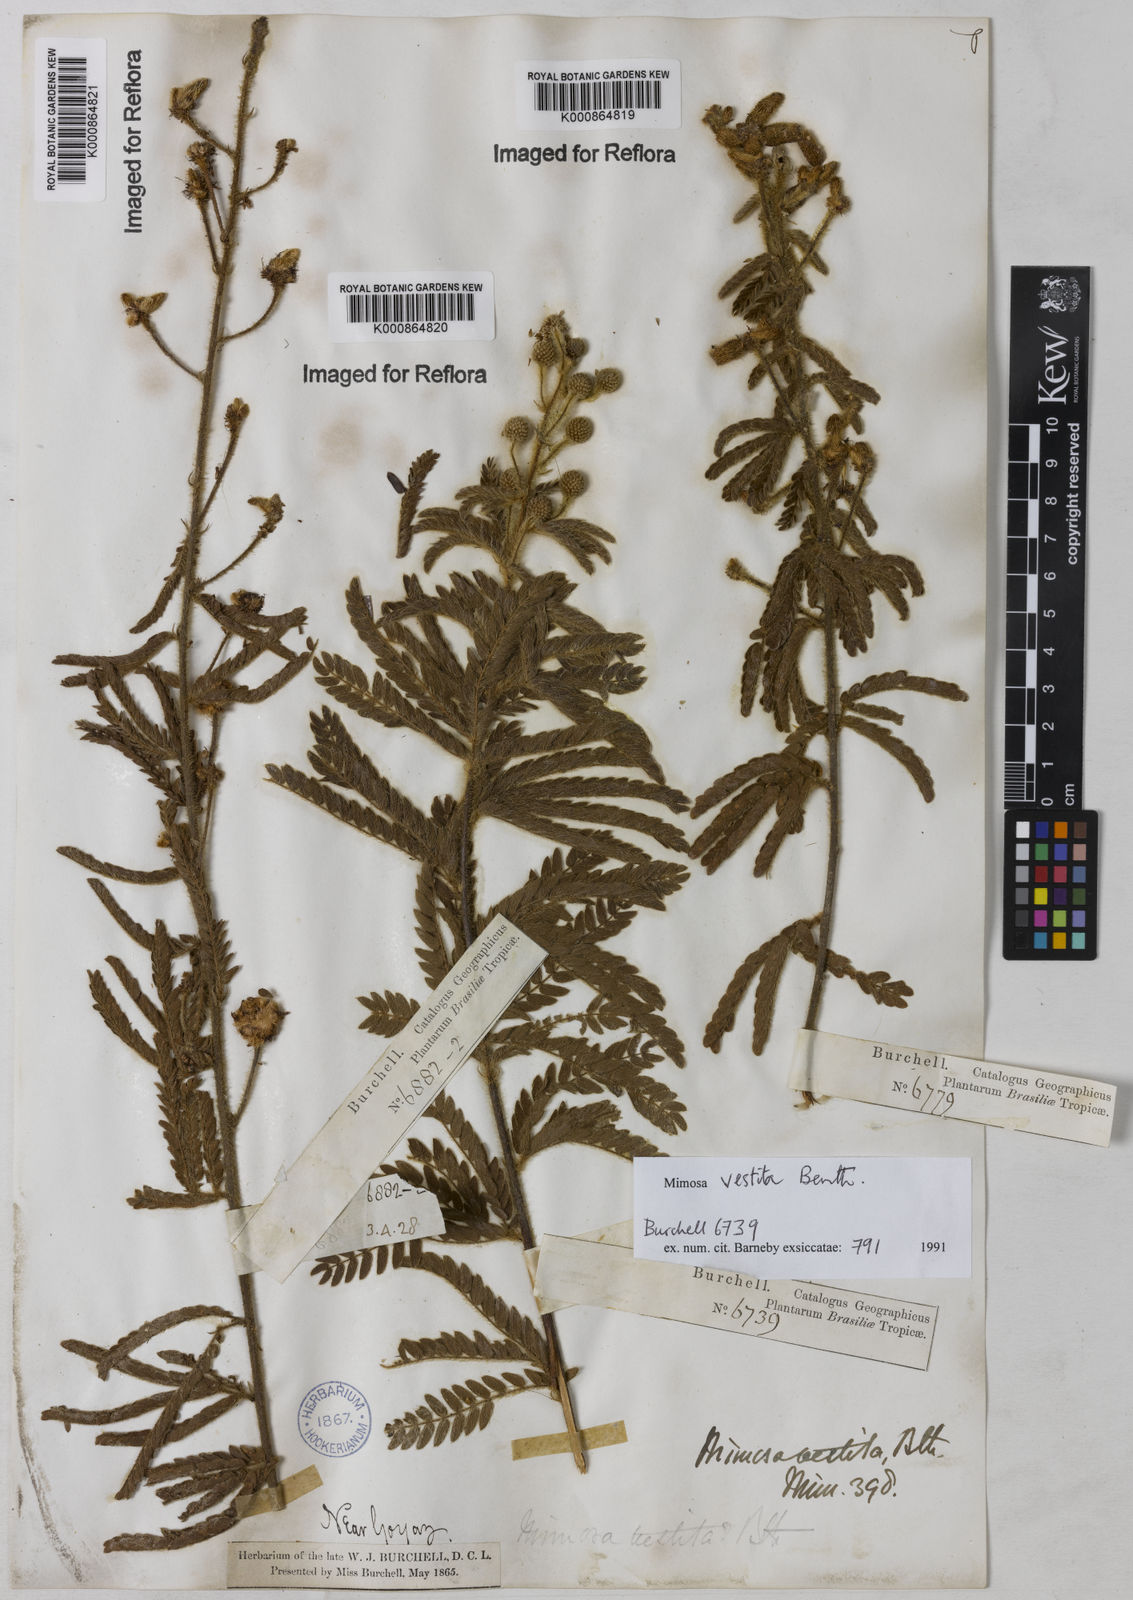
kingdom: Plantae
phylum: Tracheophyta
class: Magnoliopsida
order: Fabales
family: Fabaceae
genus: Mimosa
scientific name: Mimosa vestita
